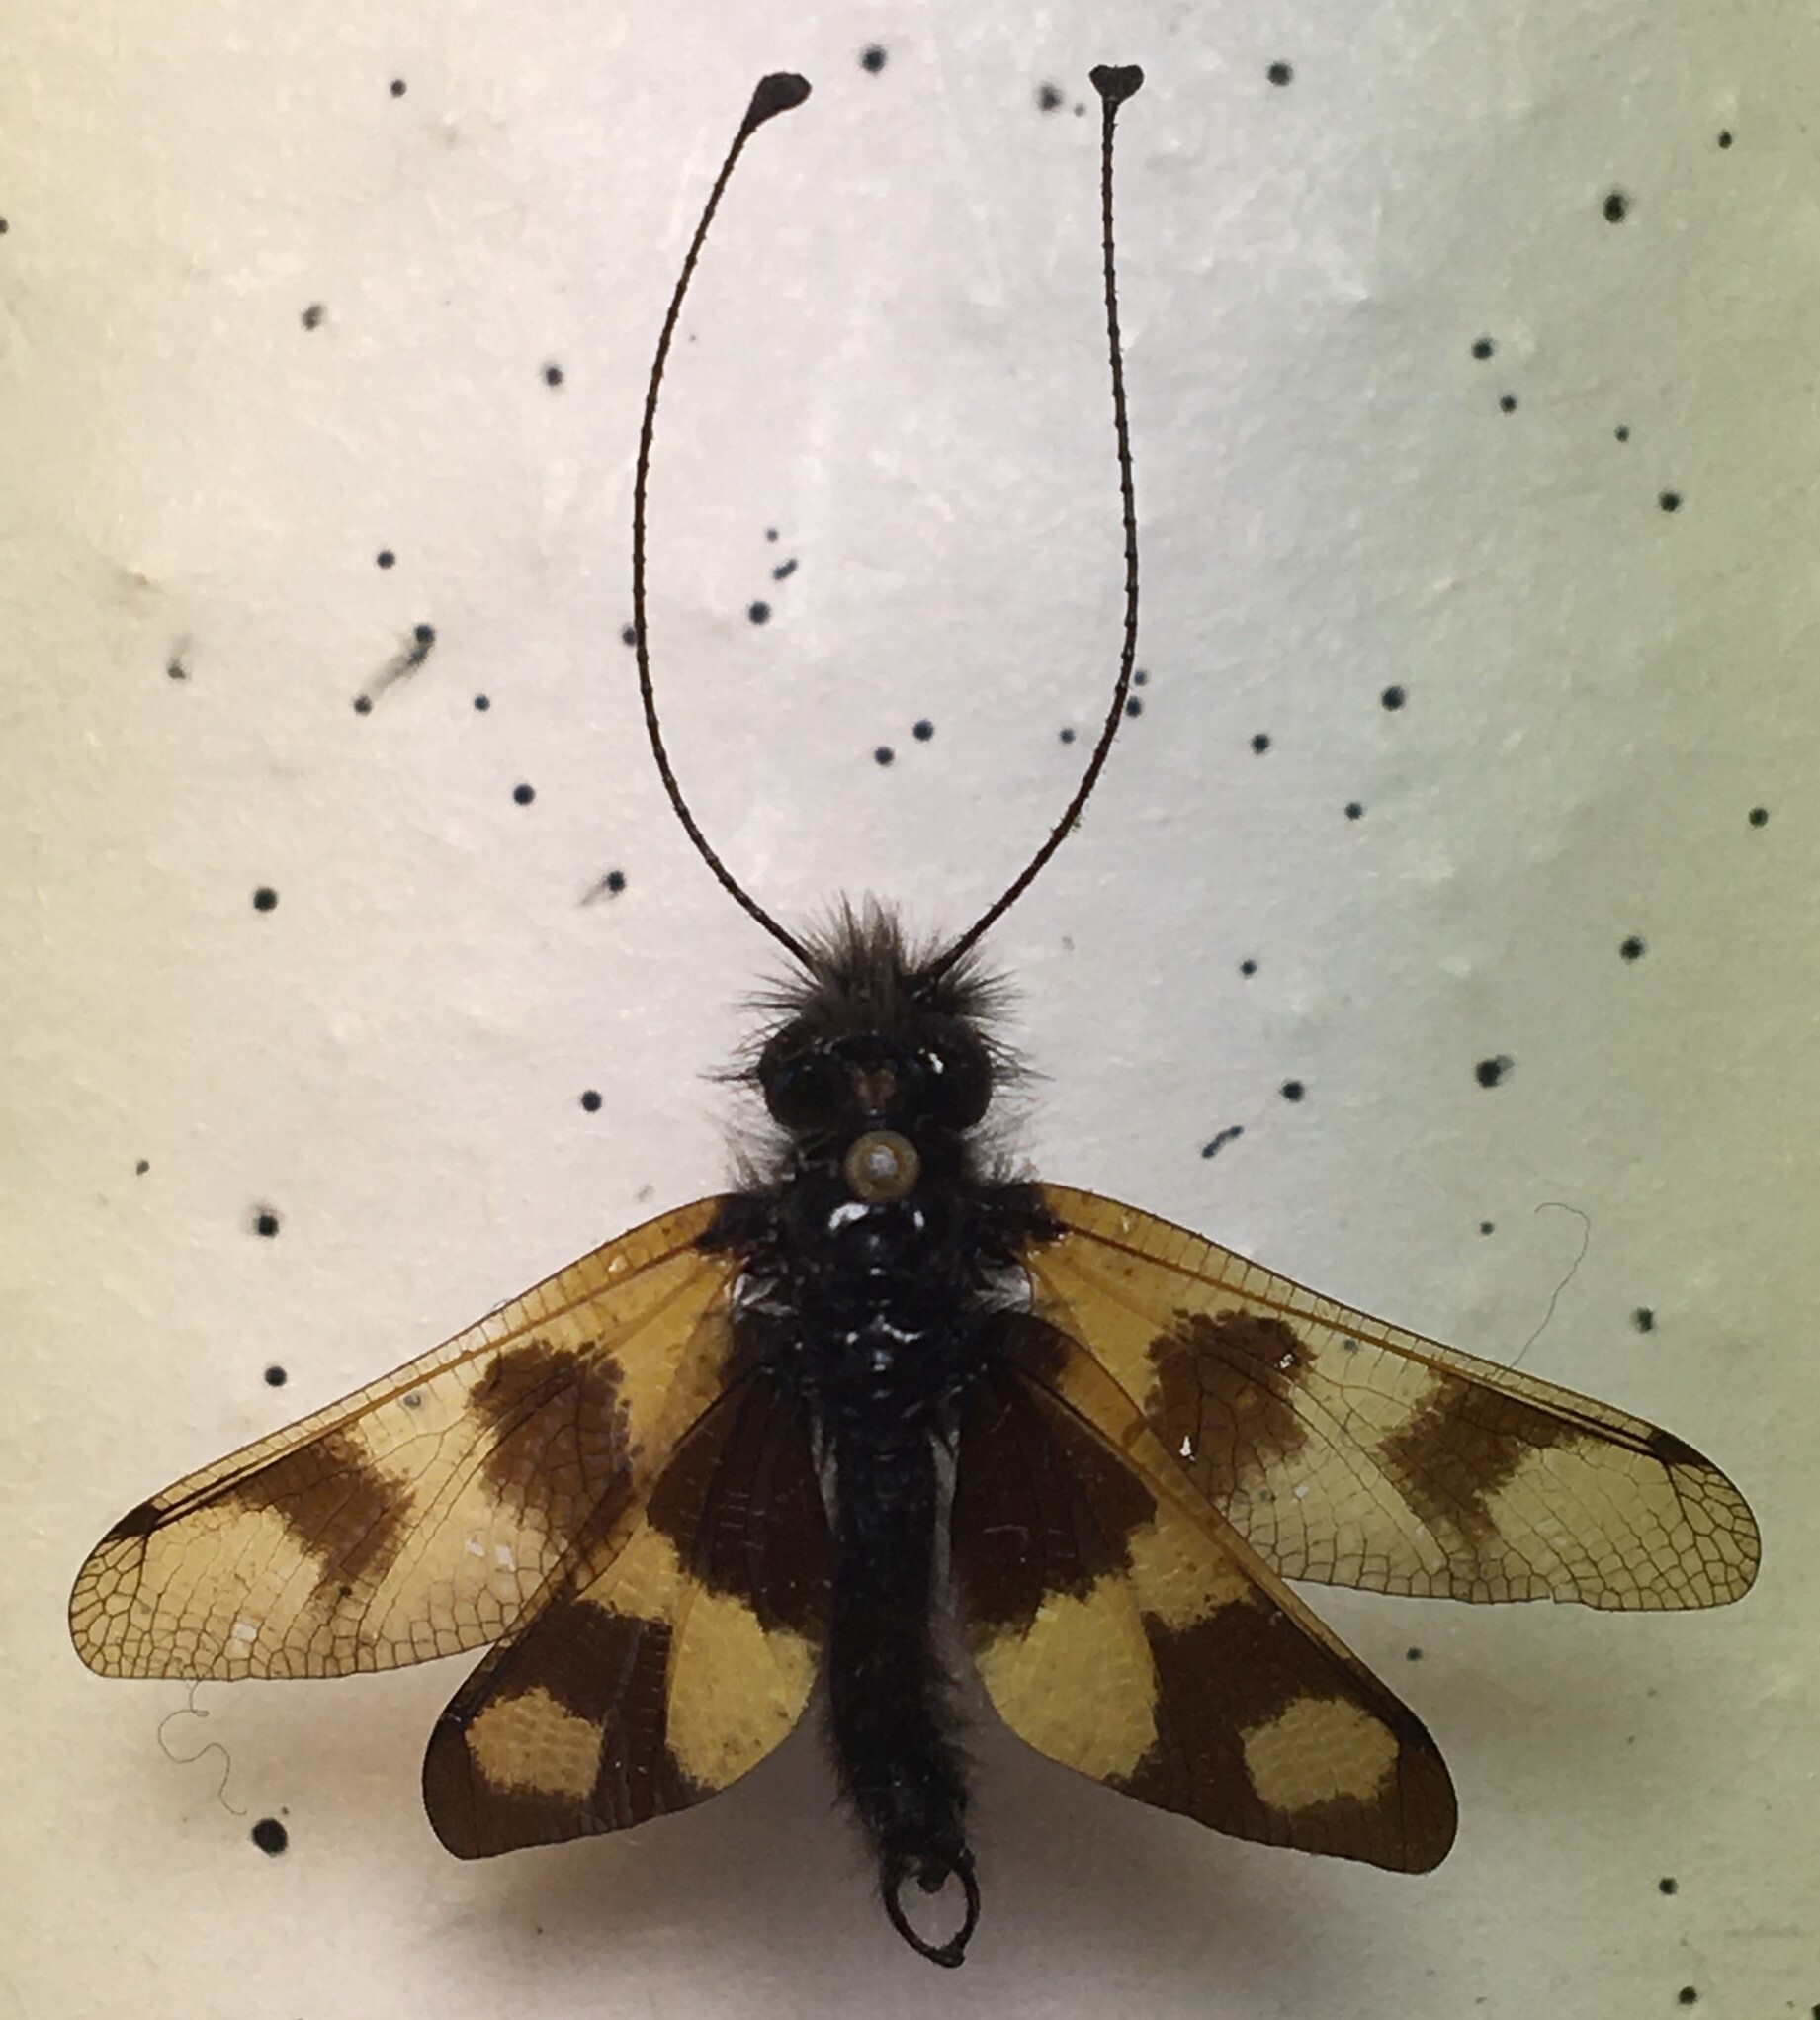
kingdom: Animalia
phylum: Arthropoda
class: Insecta
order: Neuroptera
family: Ascalaphidae
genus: Libelloides
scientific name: Libelloides macaronius
